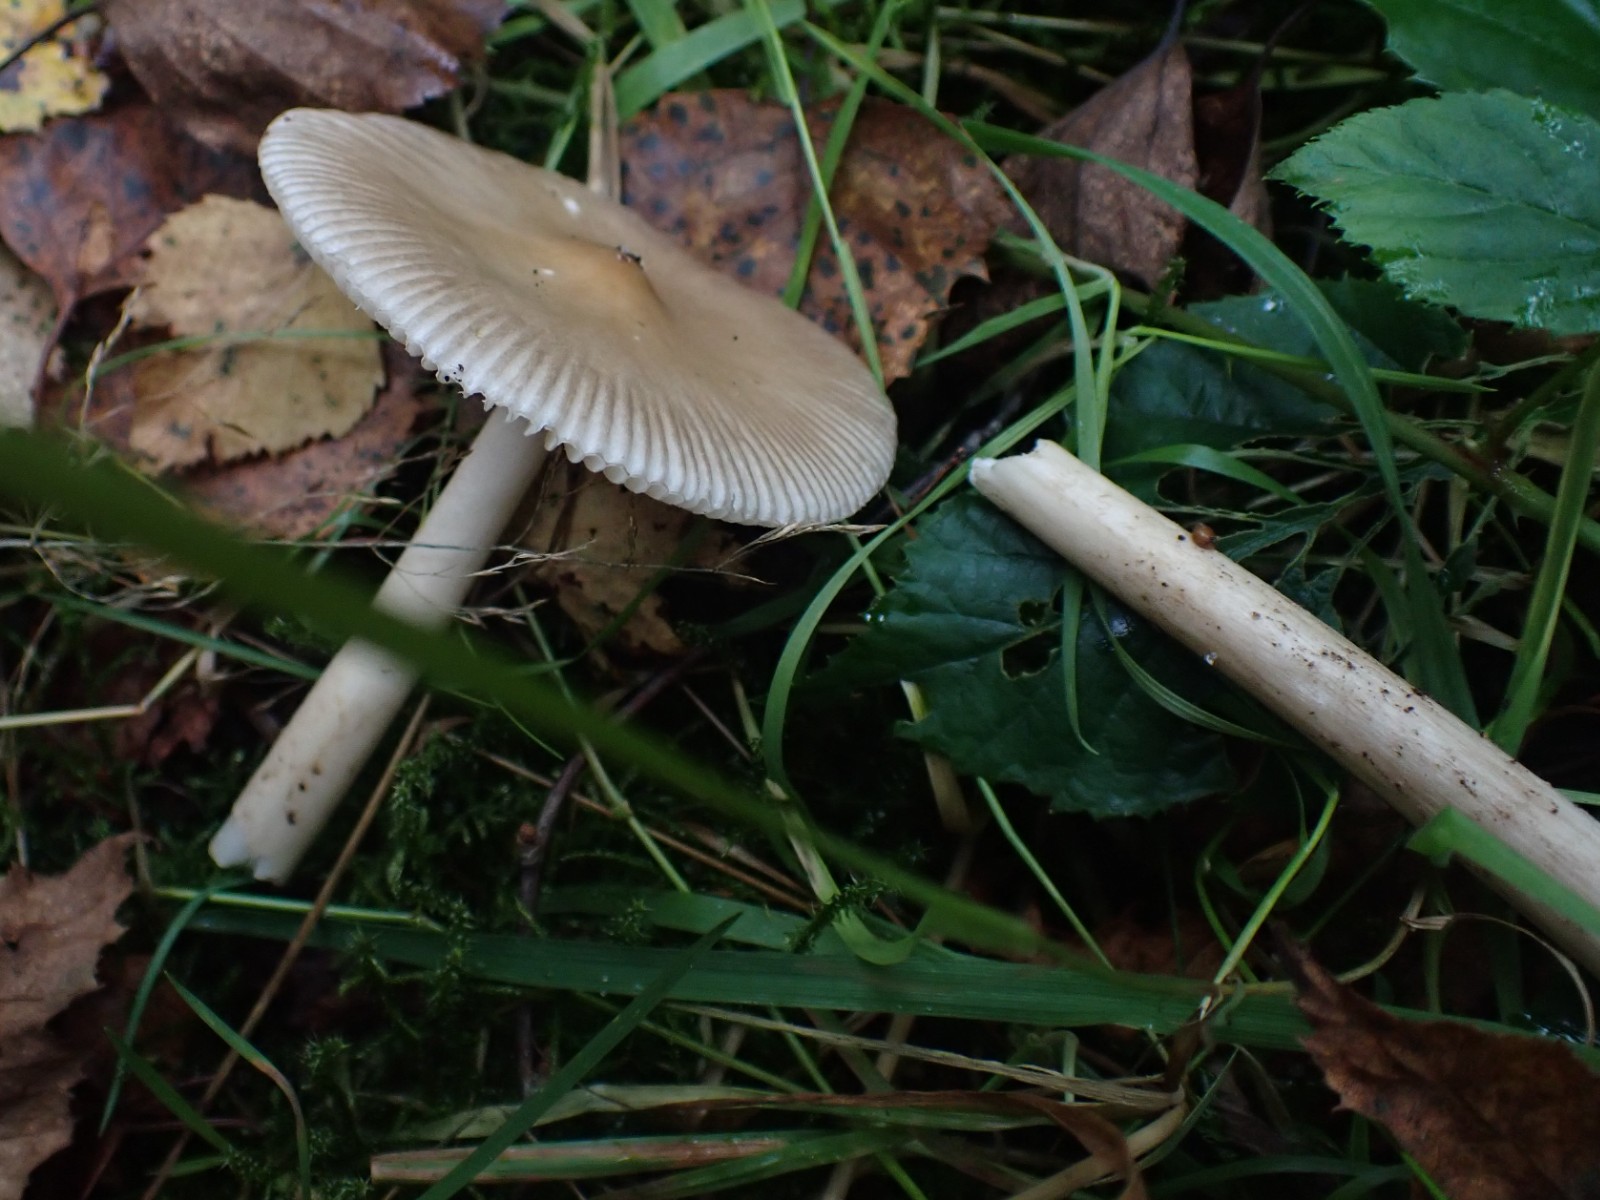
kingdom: Fungi
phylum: Basidiomycota
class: Agaricomycetes
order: Agaricales
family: Amanitaceae
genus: Amanita
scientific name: Amanita
